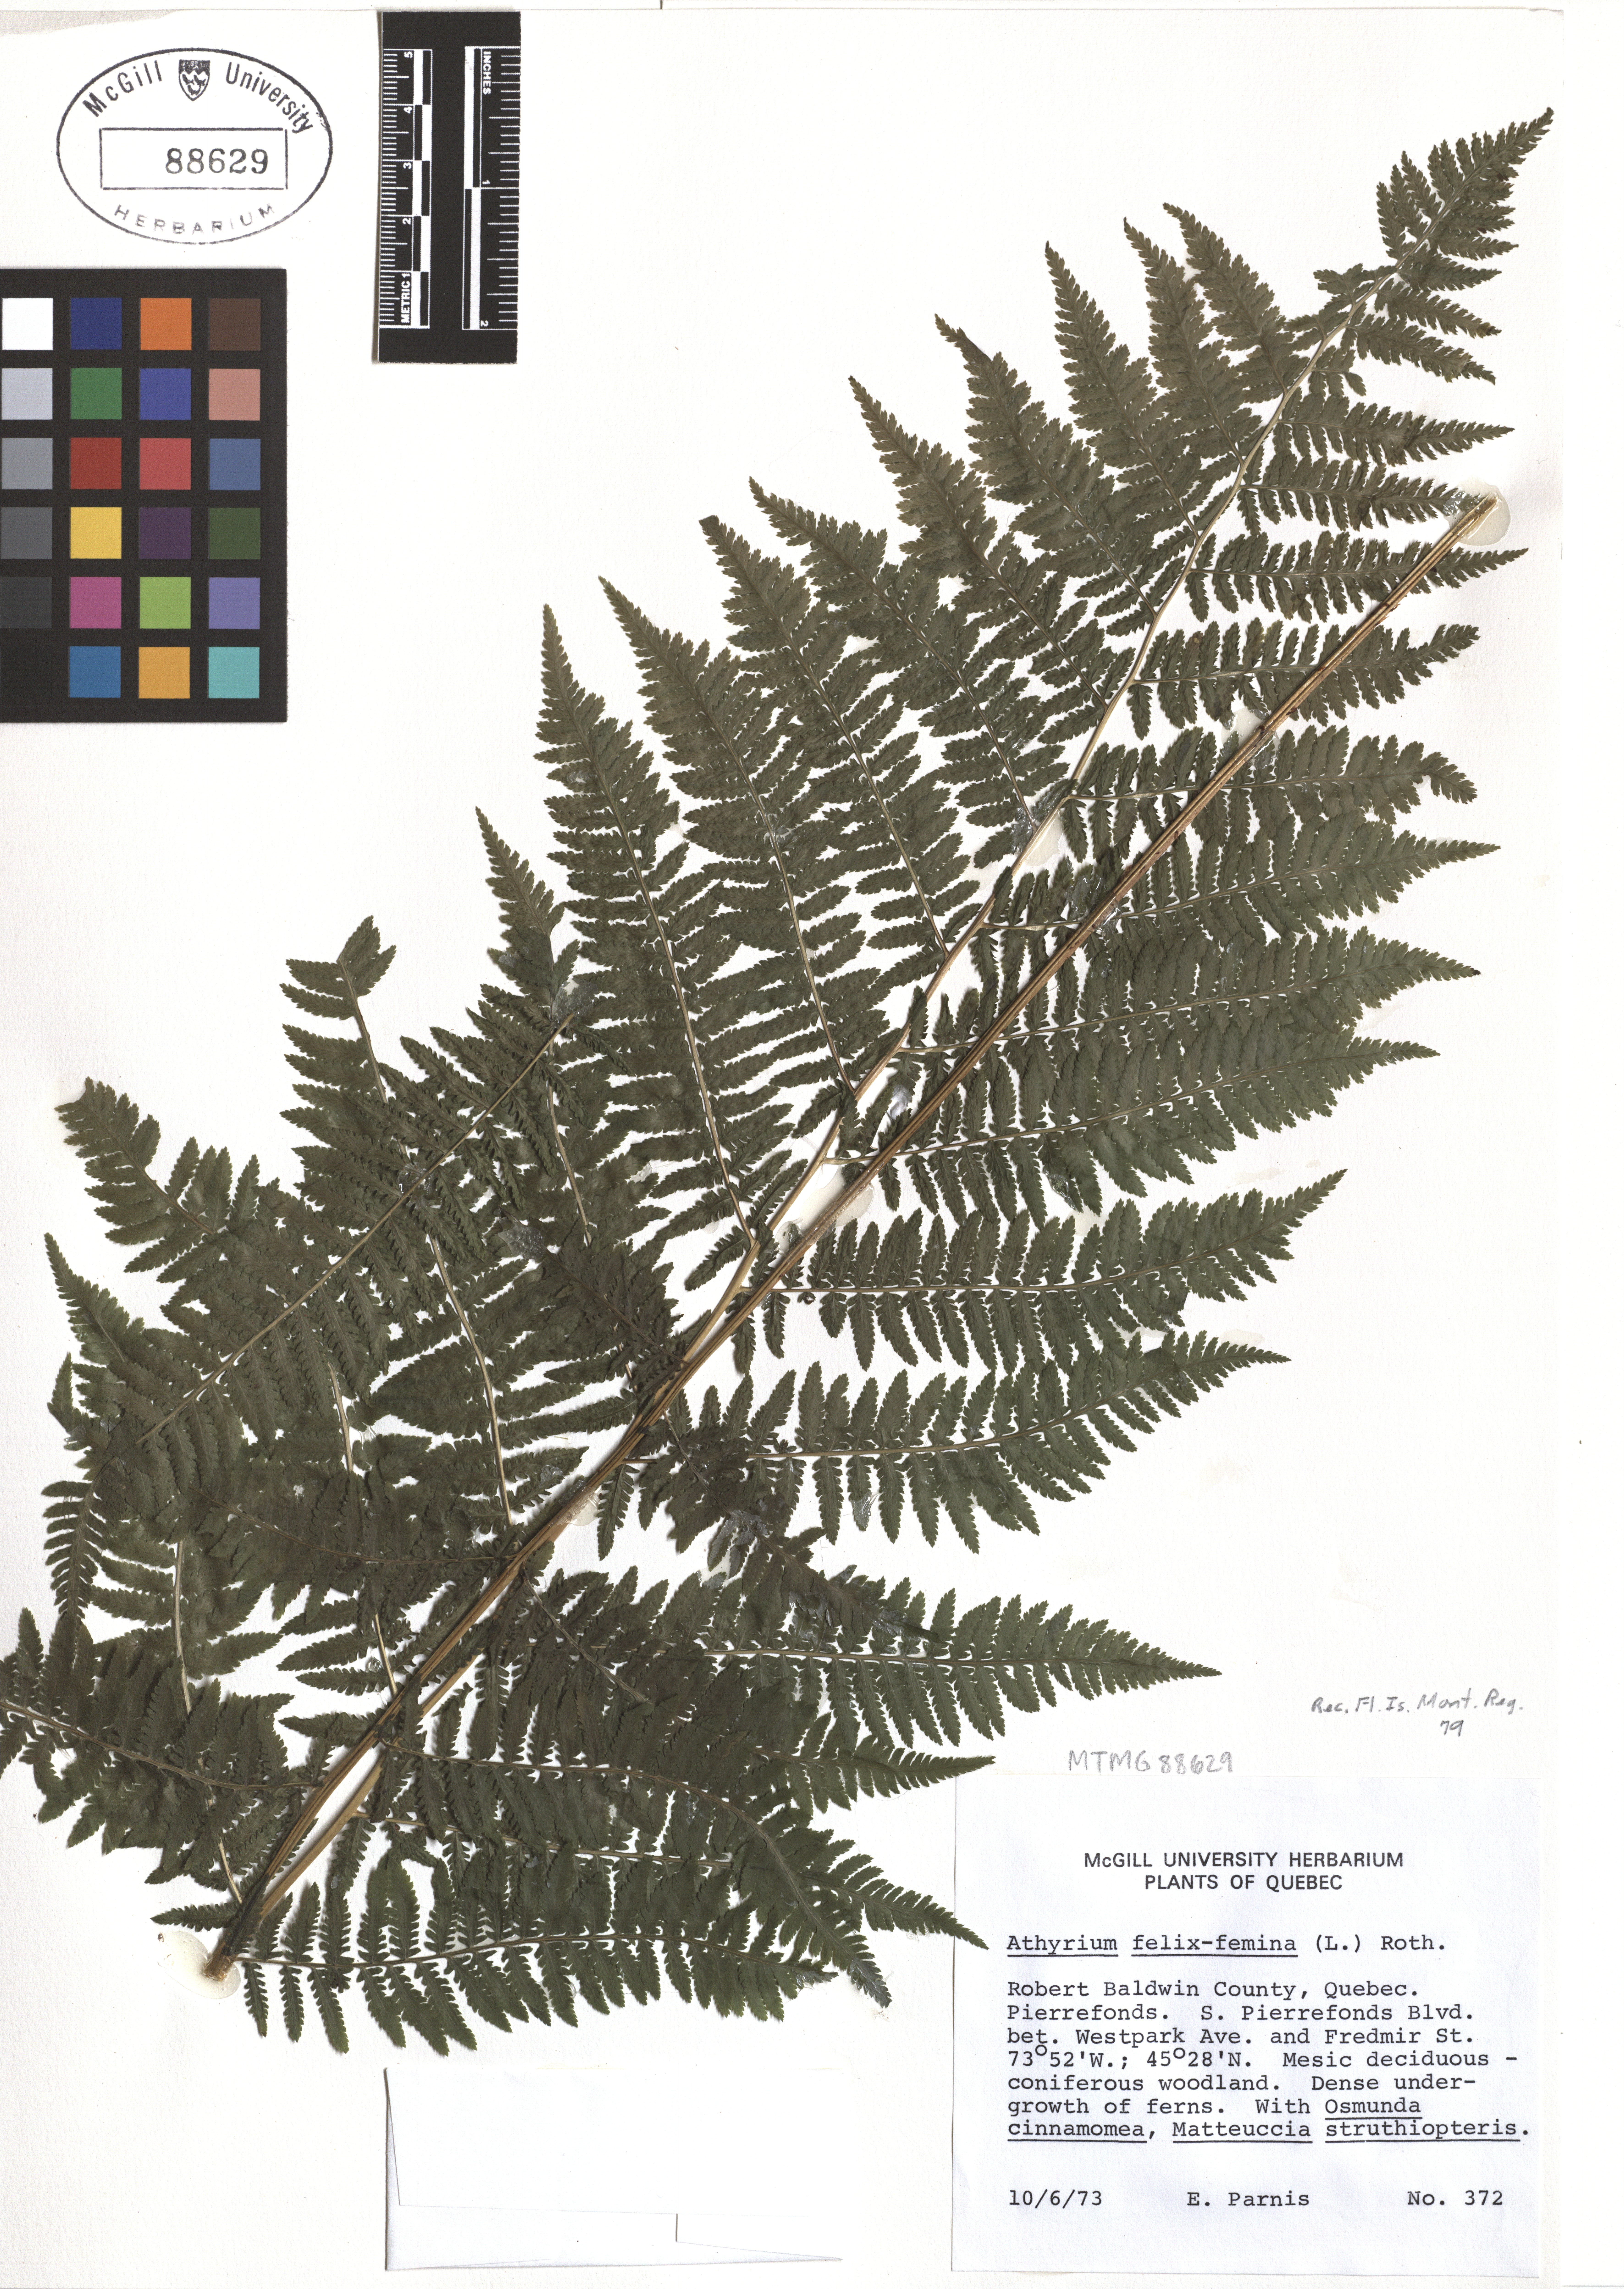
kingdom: Plantae
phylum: Tracheophyta
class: Polypodiopsida
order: Polypodiales
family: Athyriaceae
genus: Athyrium
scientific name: Athyrium filix-femina
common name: Lady fern
